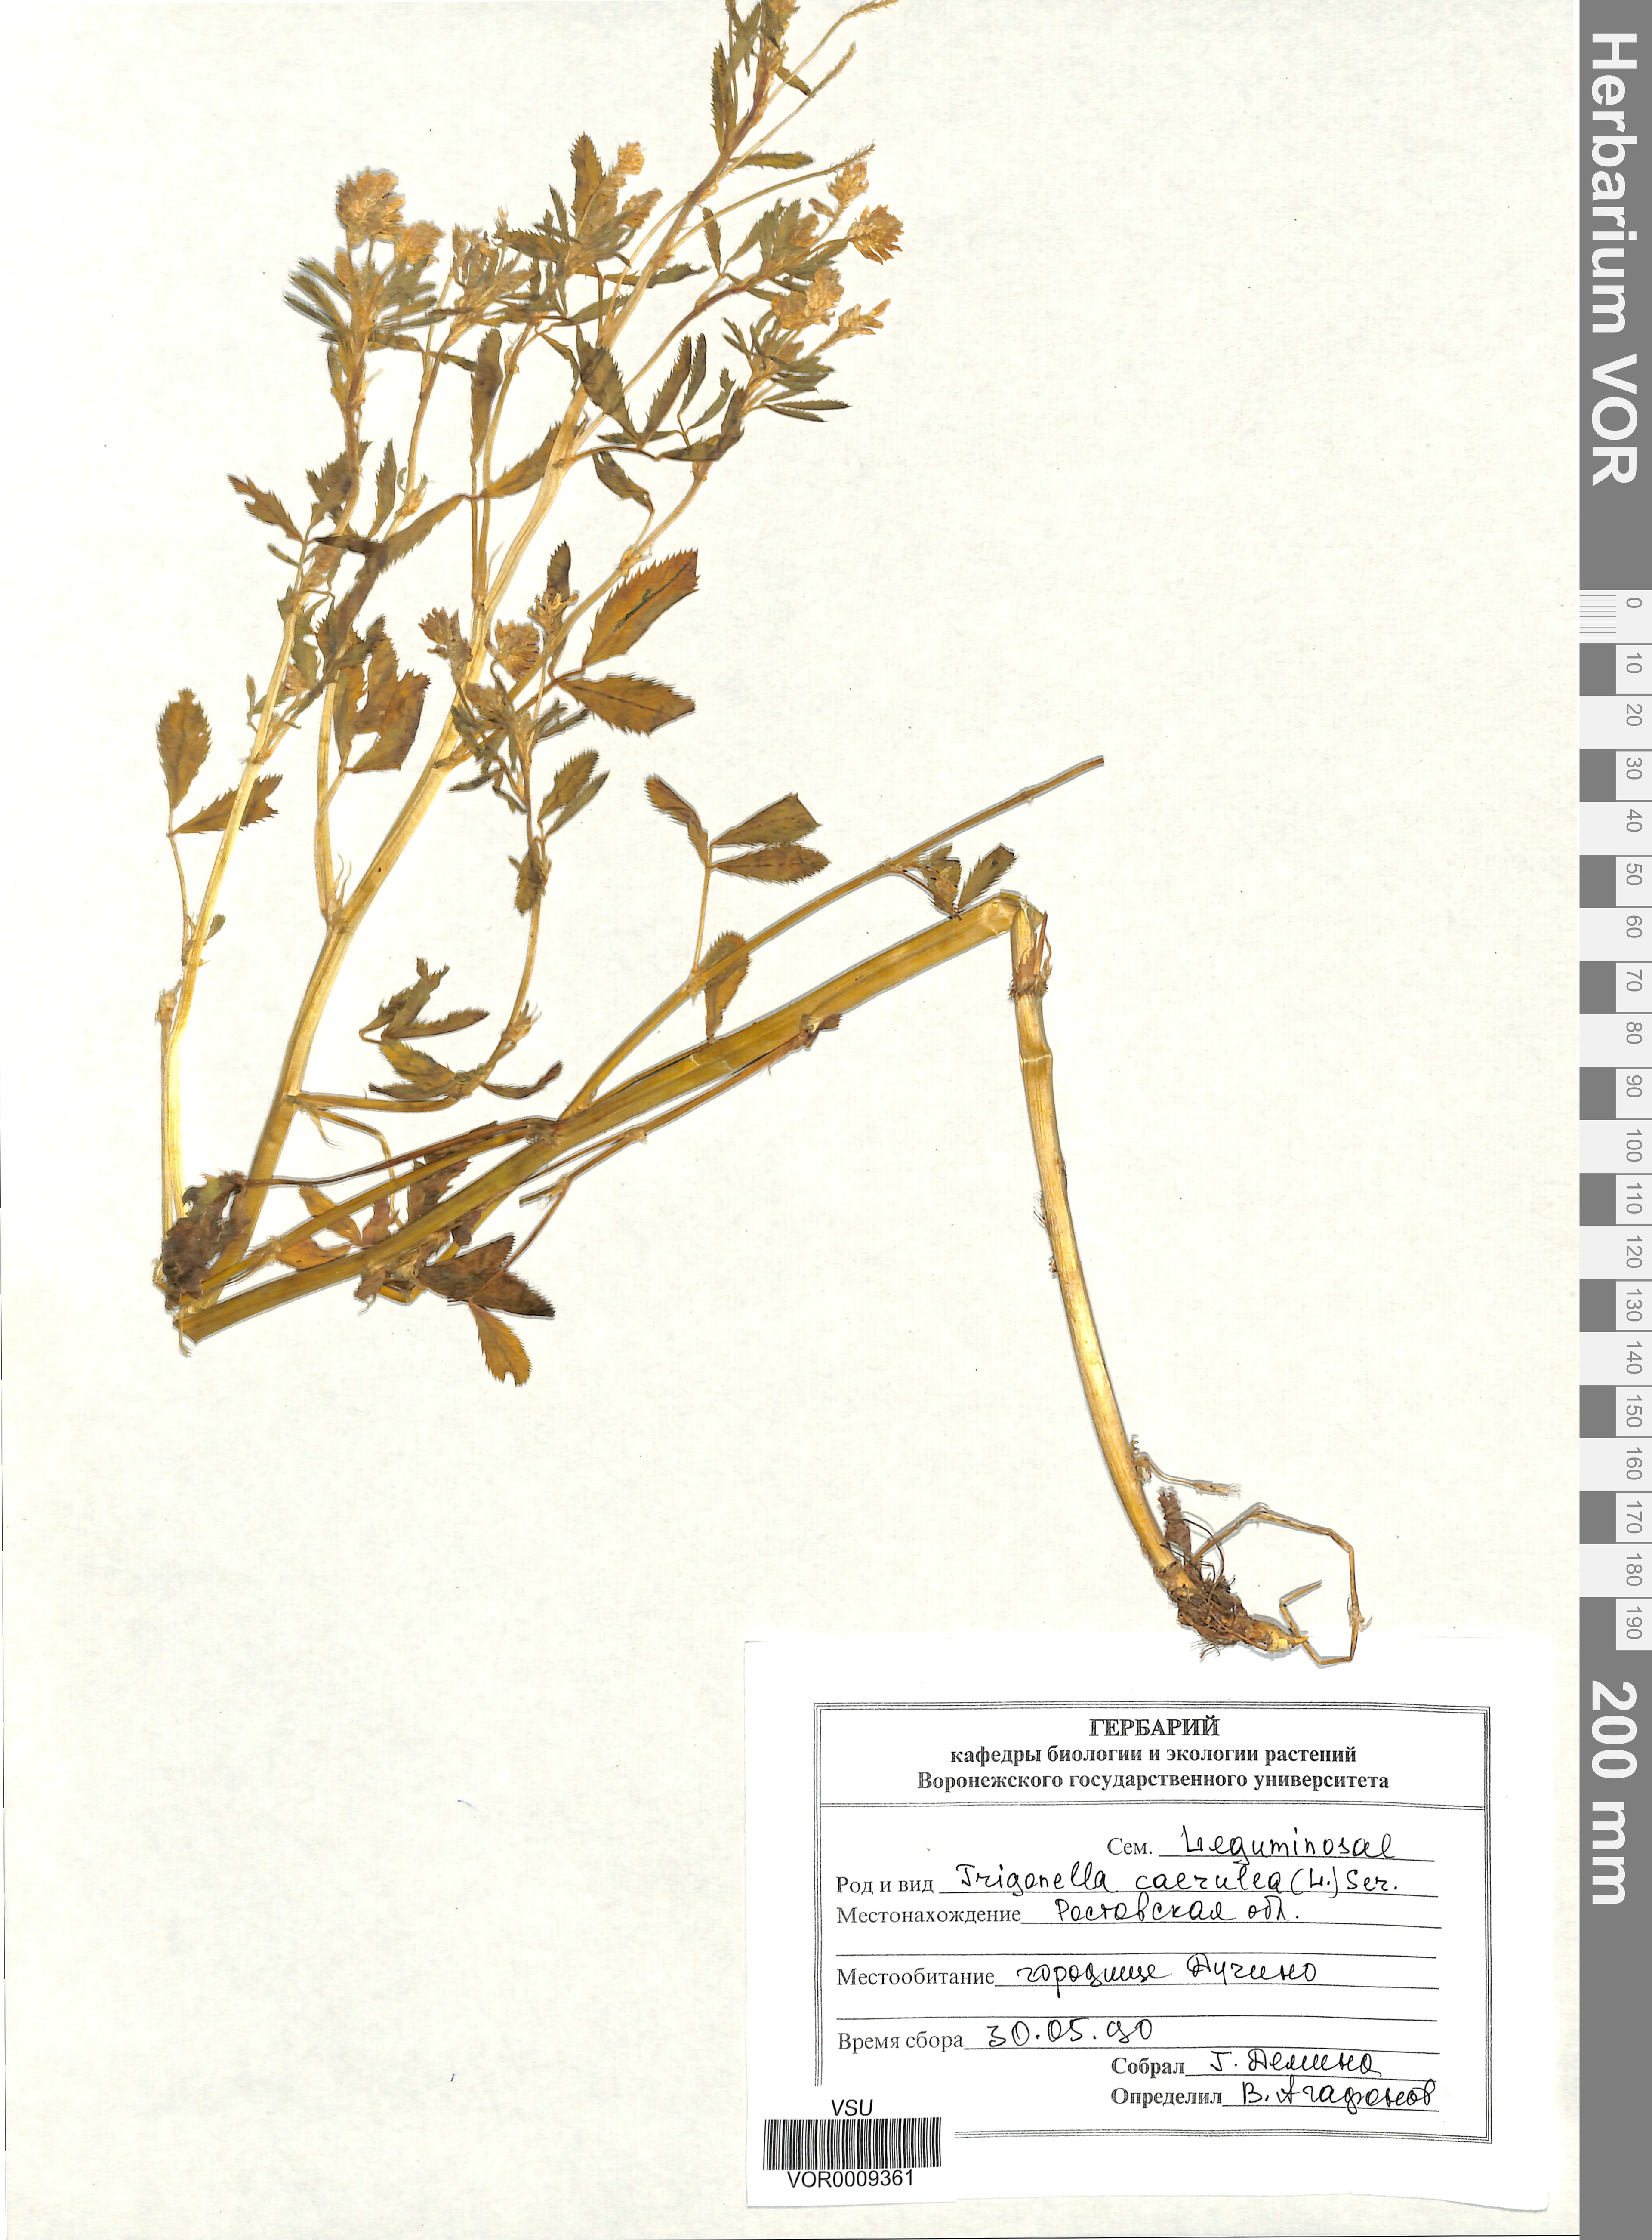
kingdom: Plantae
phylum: Tracheophyta
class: Magnoliopsida
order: Fabales
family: Fabaceae
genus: Trigonella
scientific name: Trigonella caerulea
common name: Blue fenugreek
